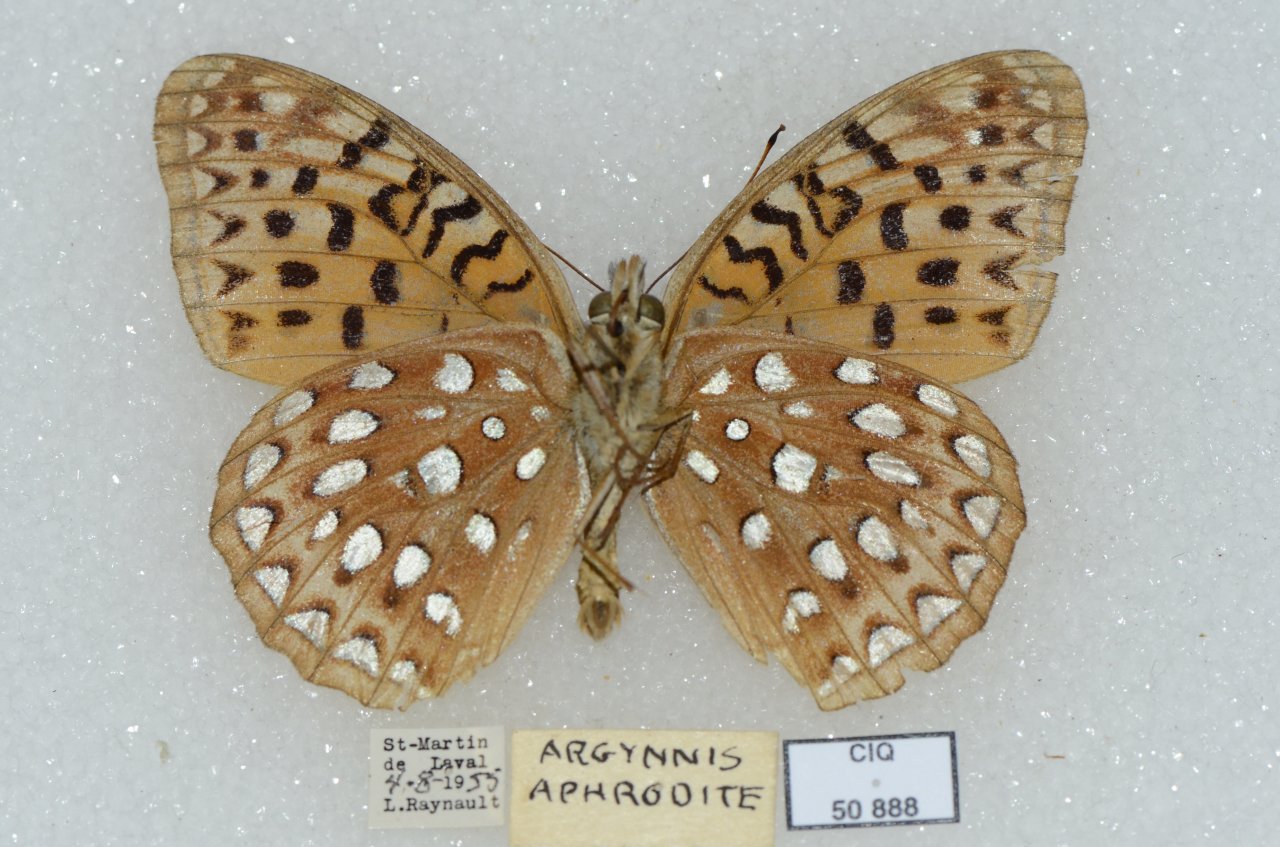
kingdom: Animalia
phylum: Arthropoda
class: Insecta
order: Lepidoptera
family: Nymphalidae
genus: Speyeria
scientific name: Speyeria aphrodite
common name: Aphrodite Fritillary
